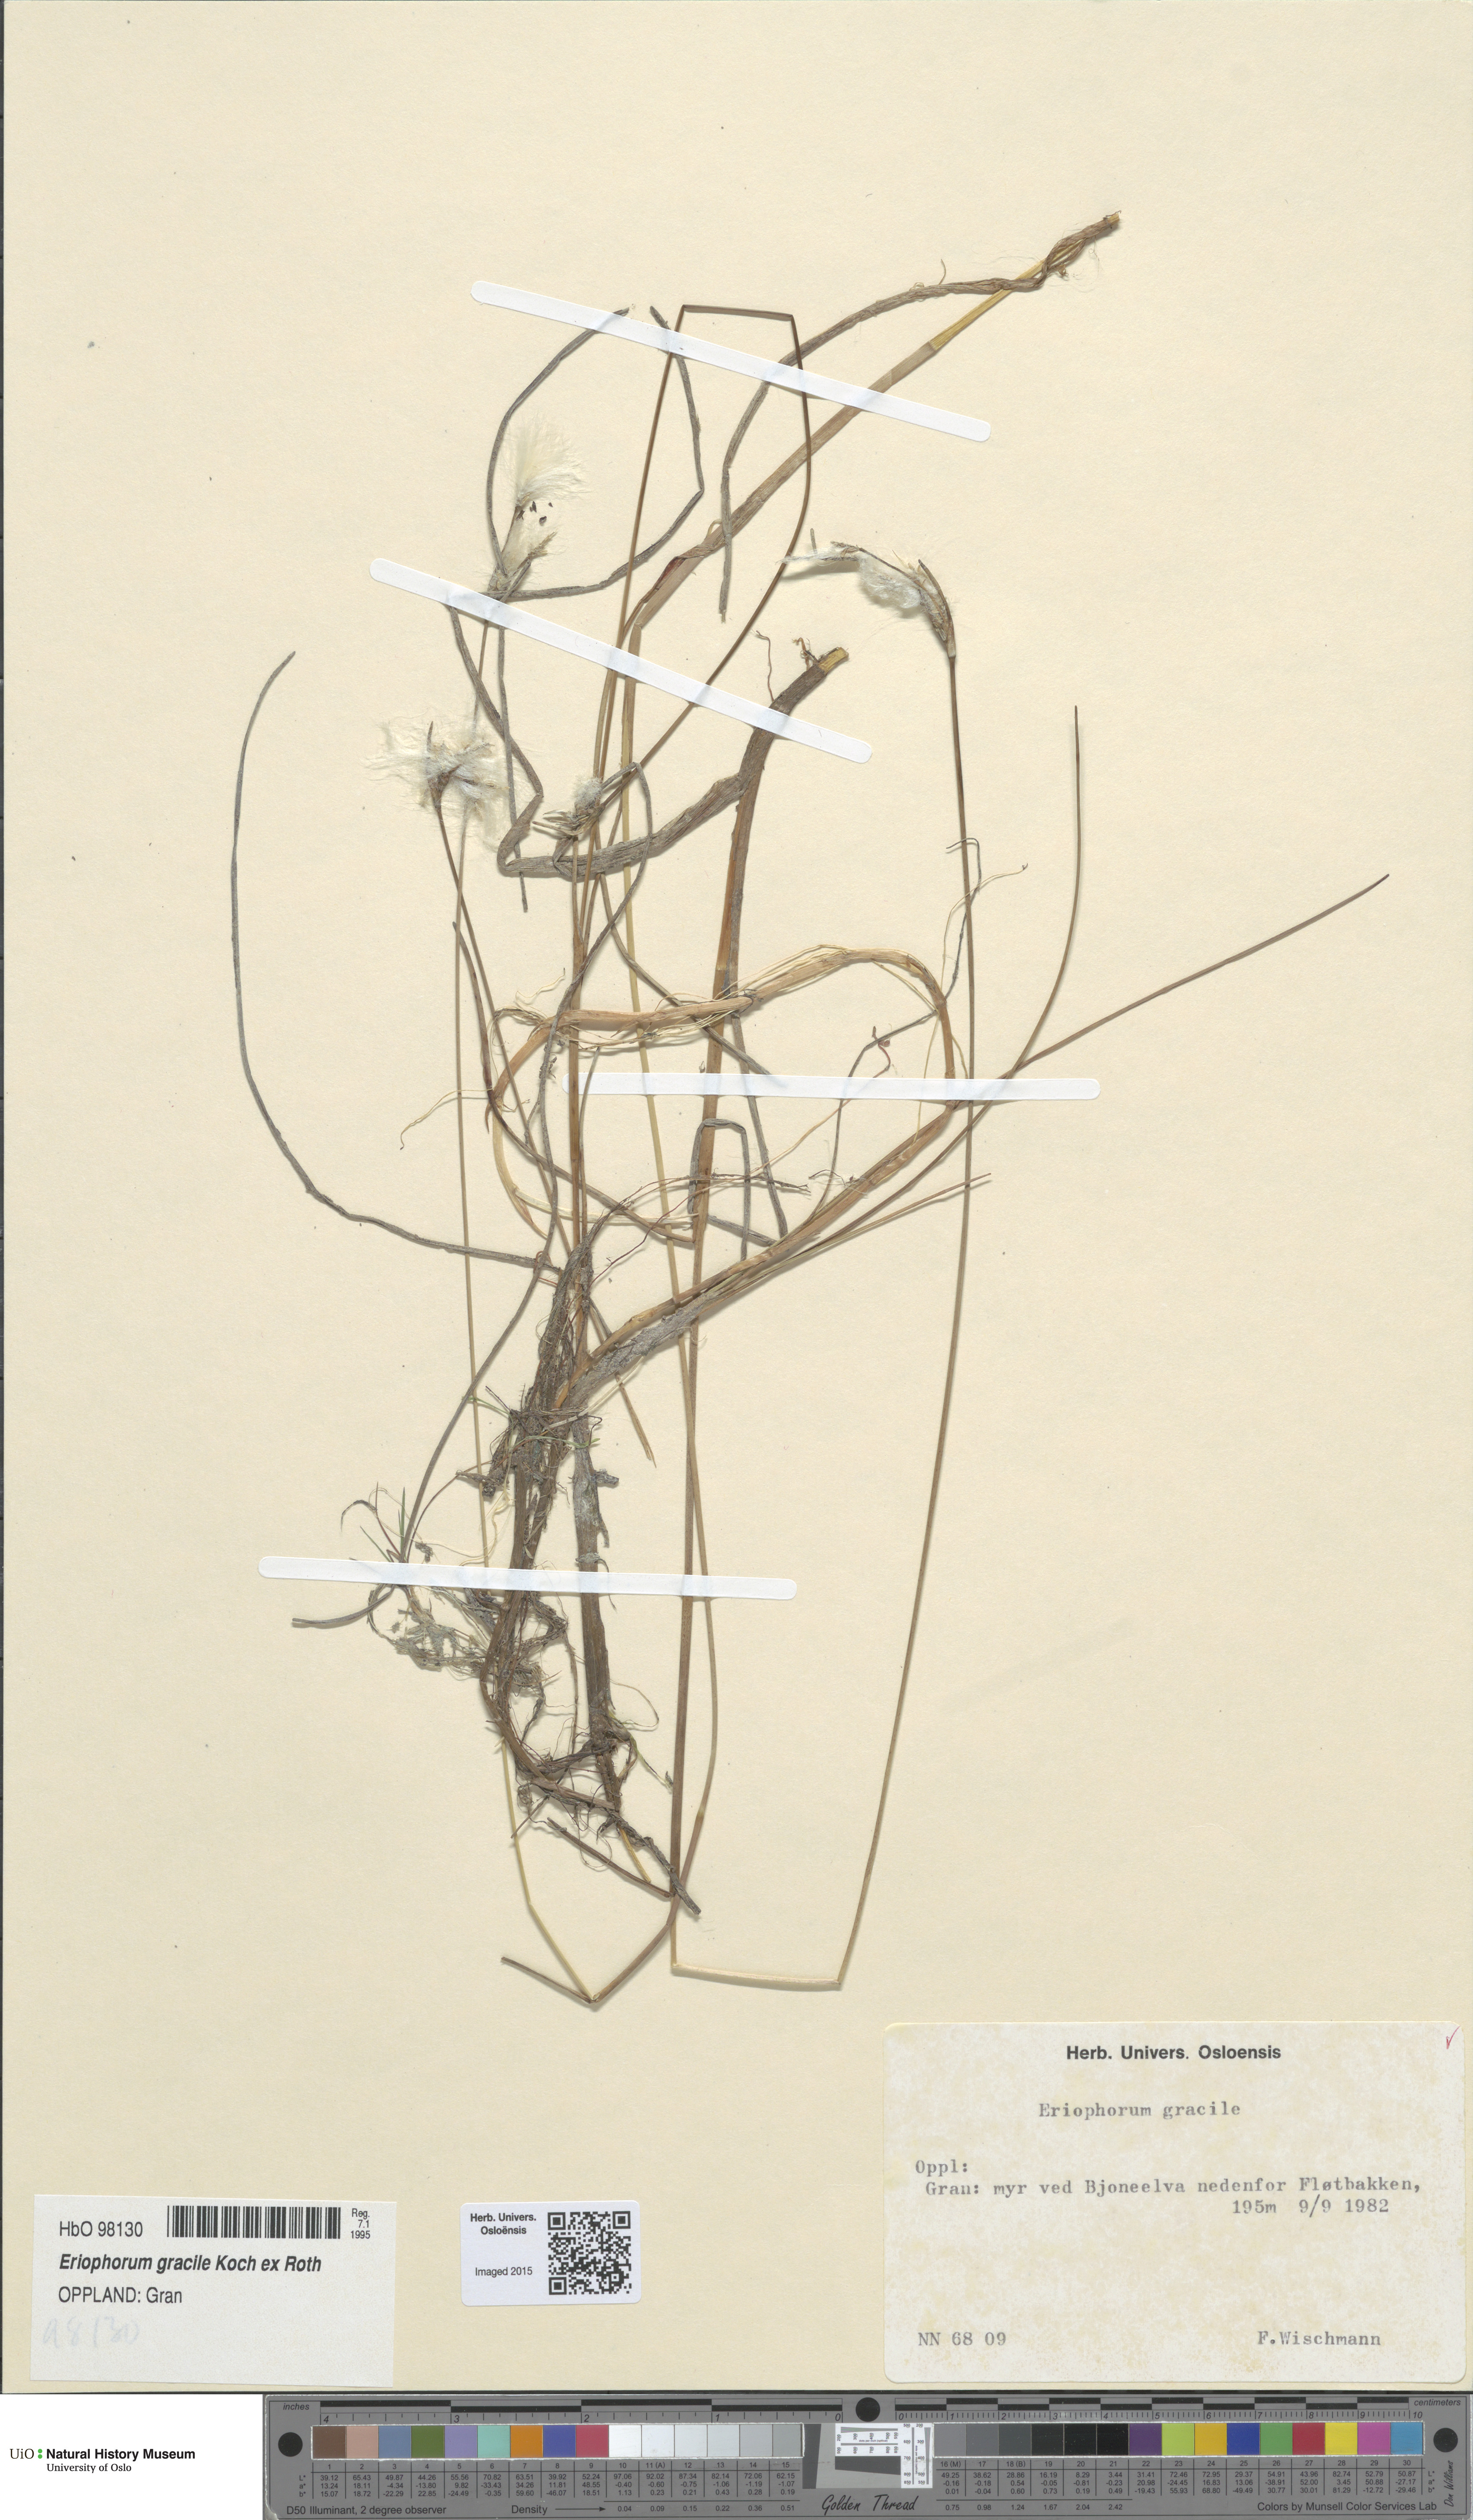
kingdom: Plantae
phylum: Tracheophyta
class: Liliopsida
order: Poales
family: Cyperaceae
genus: Eriophorum
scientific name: Eriophorum gracile
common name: Slender cottongrass
